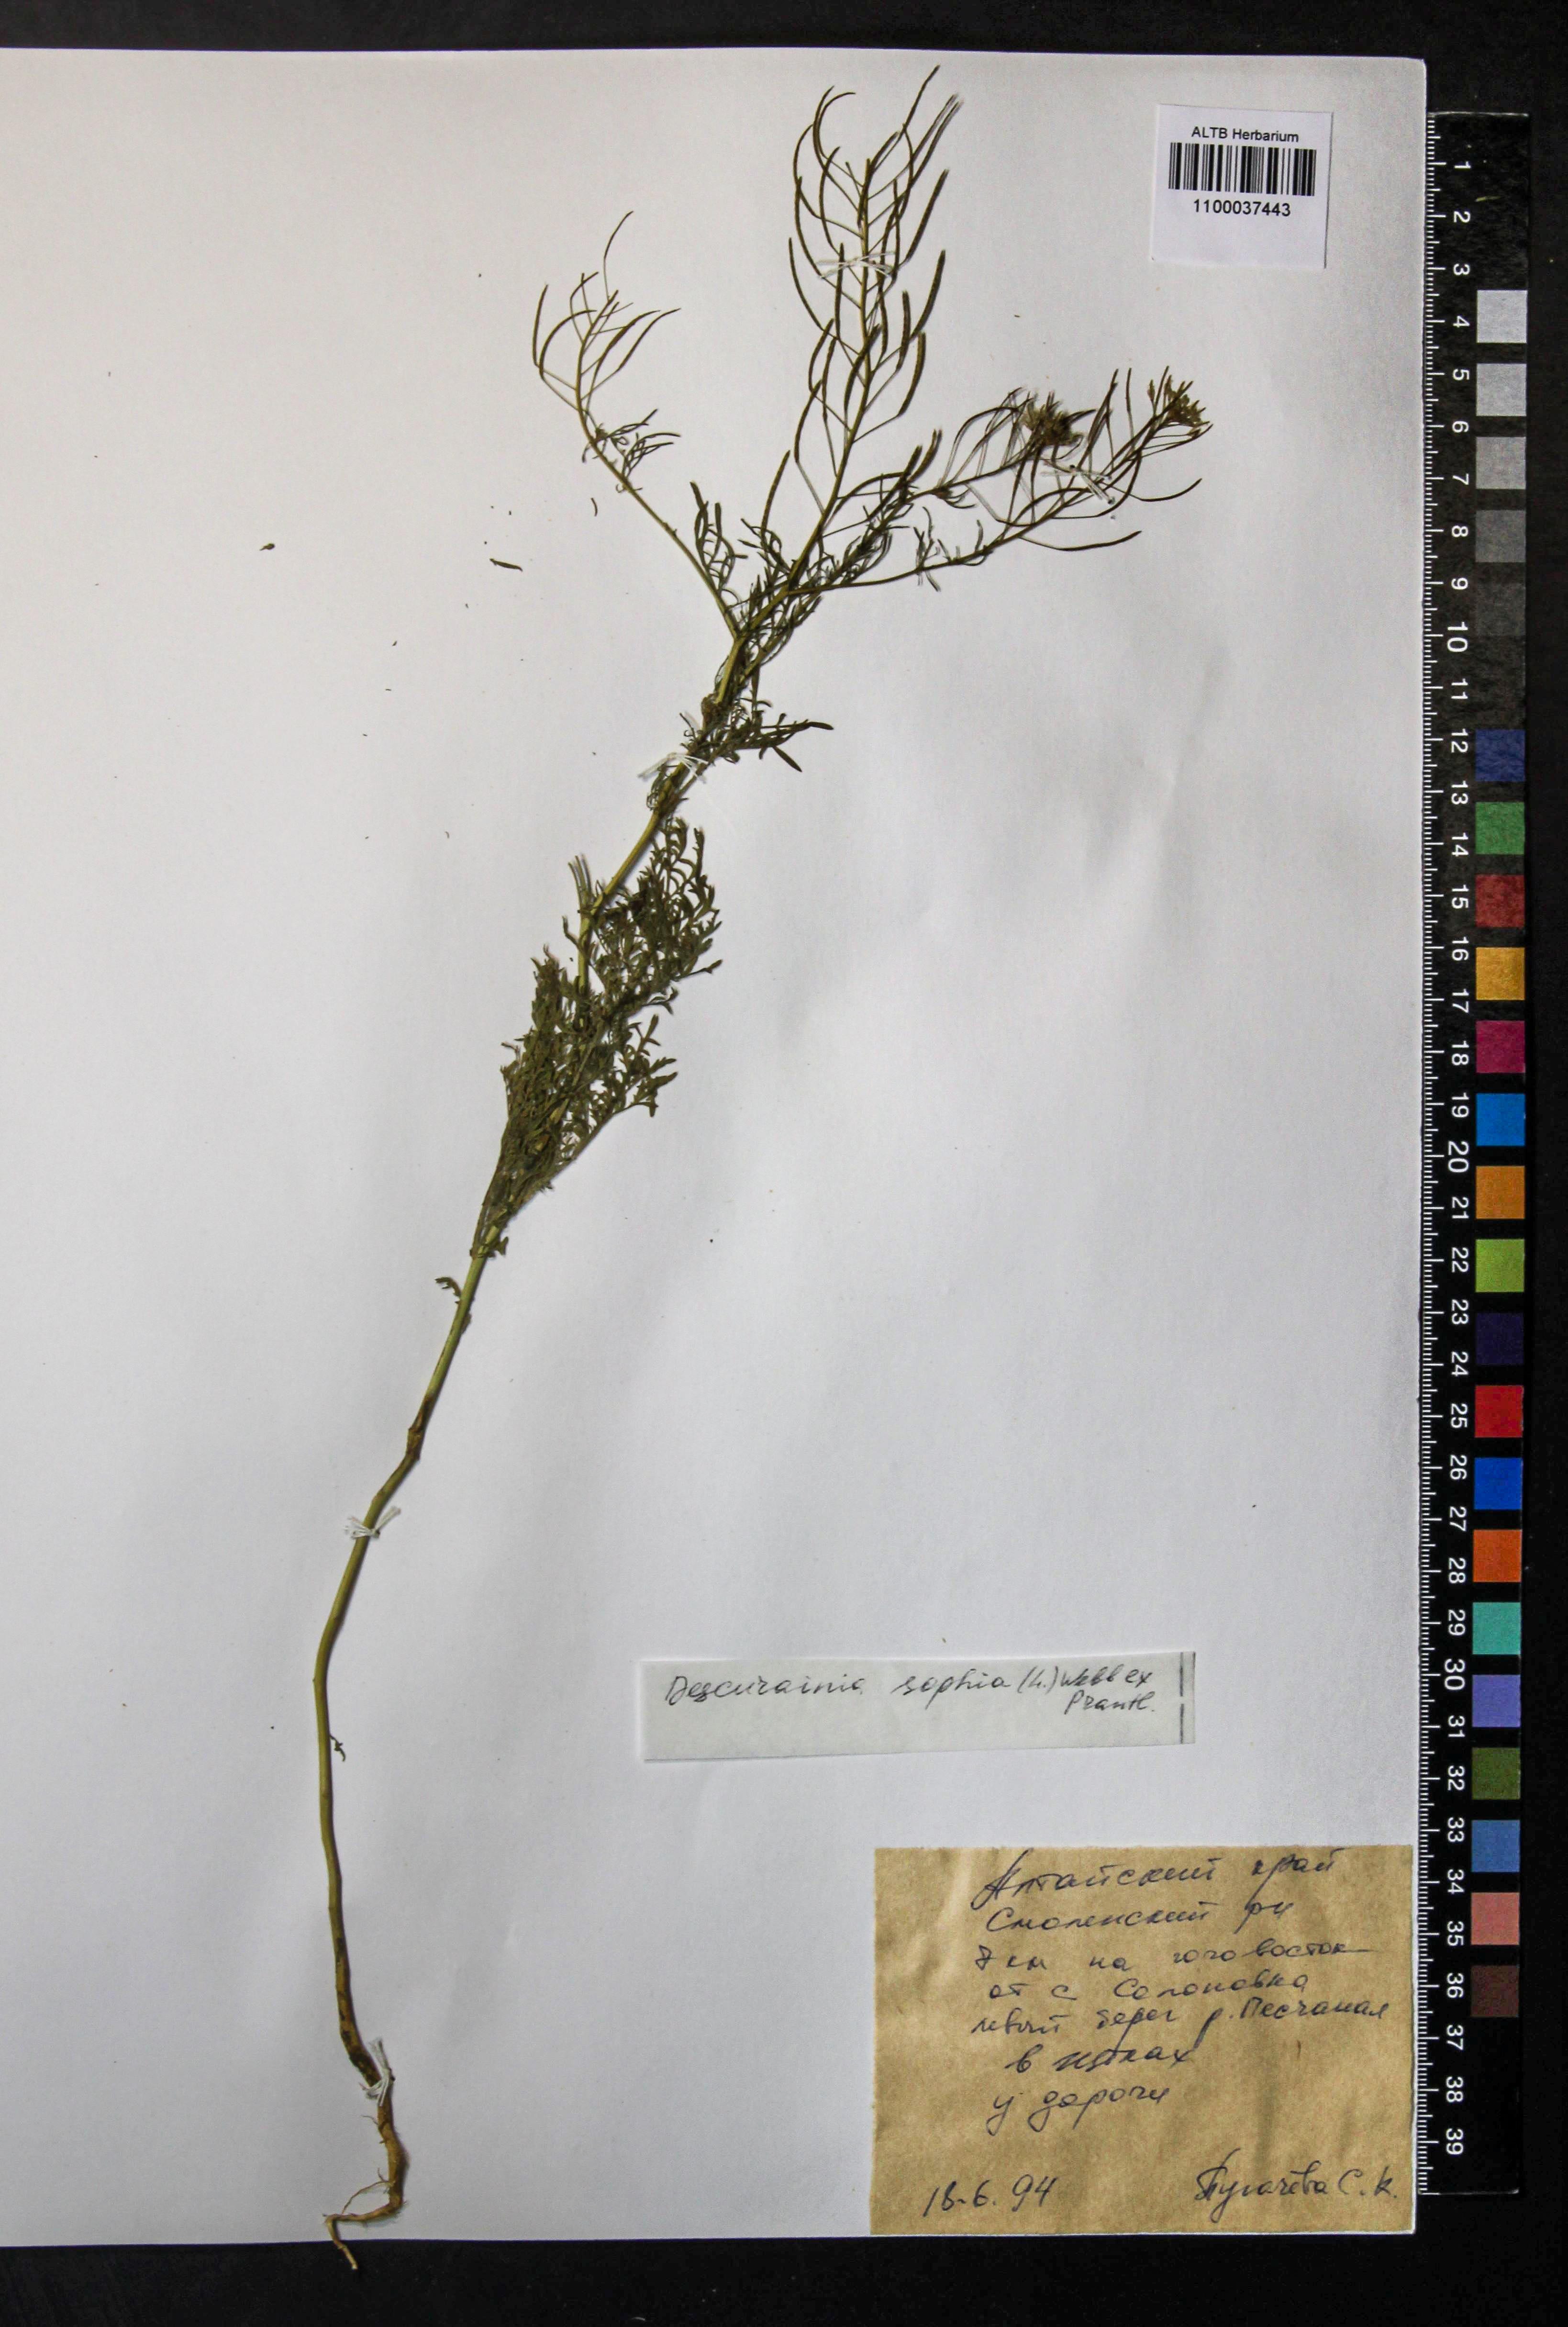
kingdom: Plantae
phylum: Tracheophyta
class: Magnoliopsida
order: Brassicales
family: Brassicaceae
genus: Descurainia
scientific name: Descurainia sophia
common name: Flixweed
